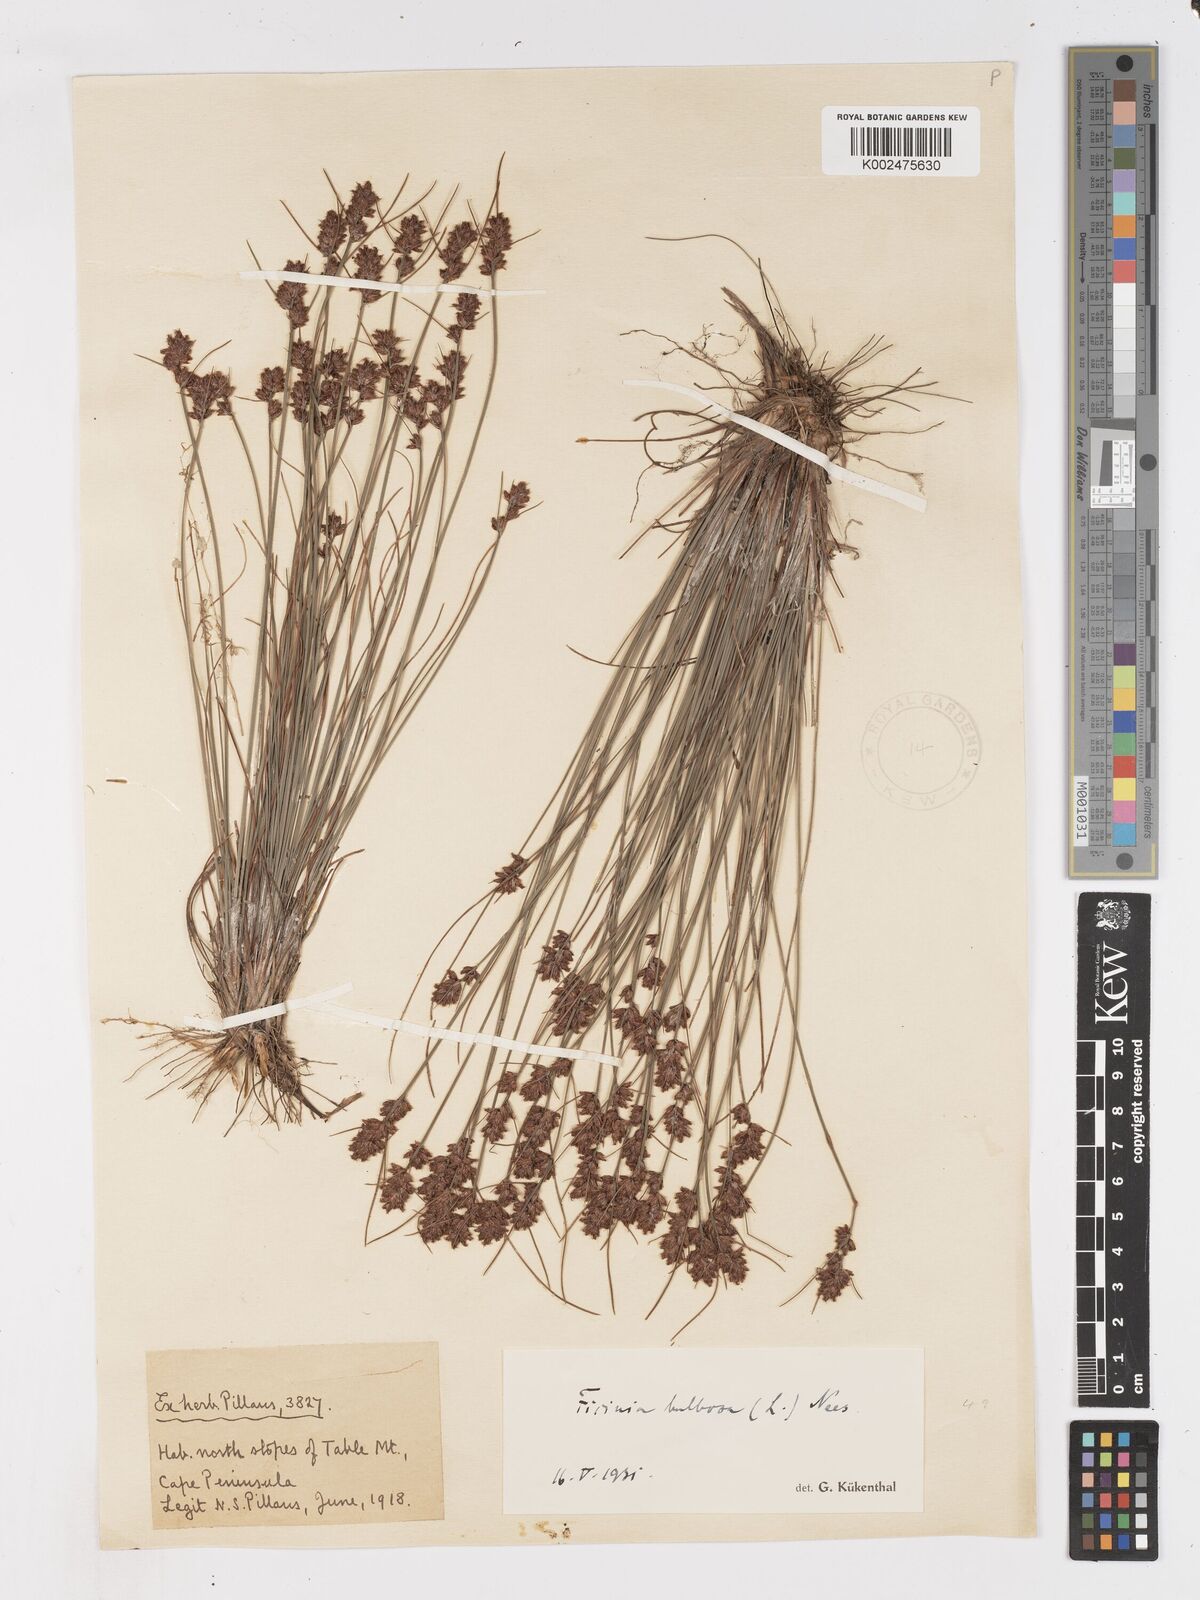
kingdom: Plantae
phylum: Tracheophyta
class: Liliopsida
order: Poales
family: Cyperaceae
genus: Ficinia
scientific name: Ficinia bulbosa
